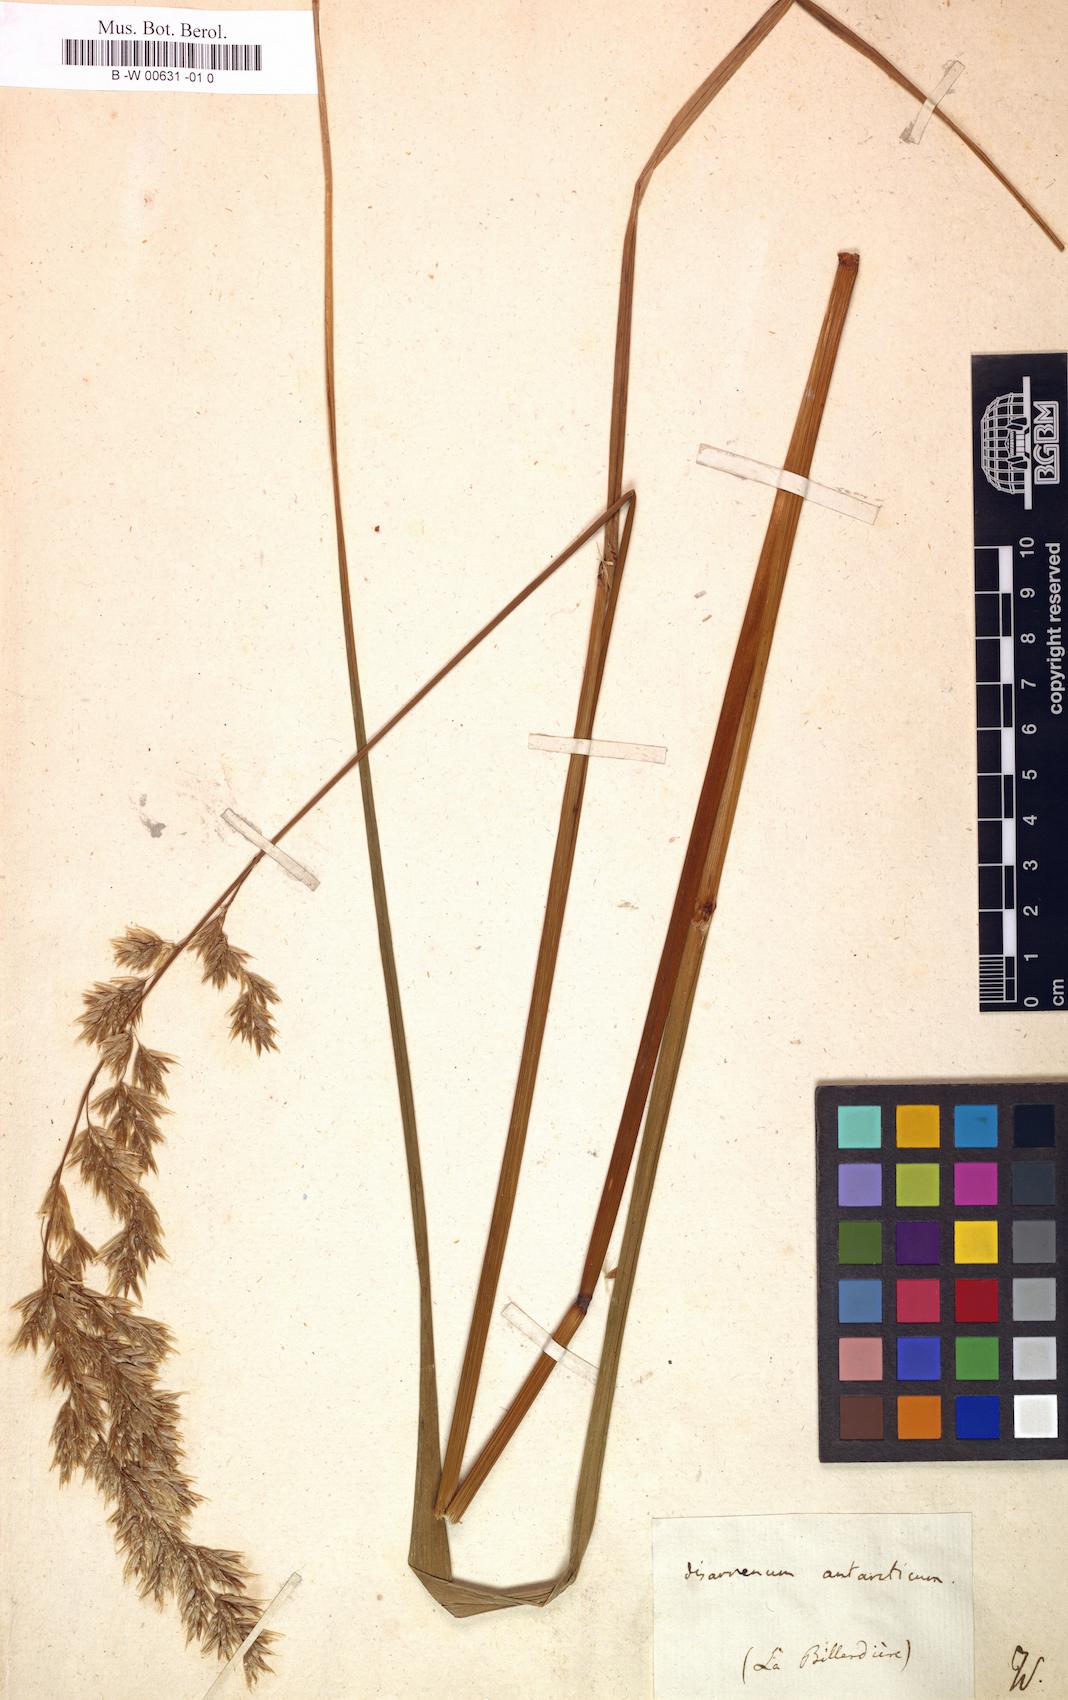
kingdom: Plantae
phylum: Tracheophyta
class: Liliopsida
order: Poales
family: Poaceae
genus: Anthoxanthum
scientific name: Anthoxanthum redolens
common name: Sweet holy grass
